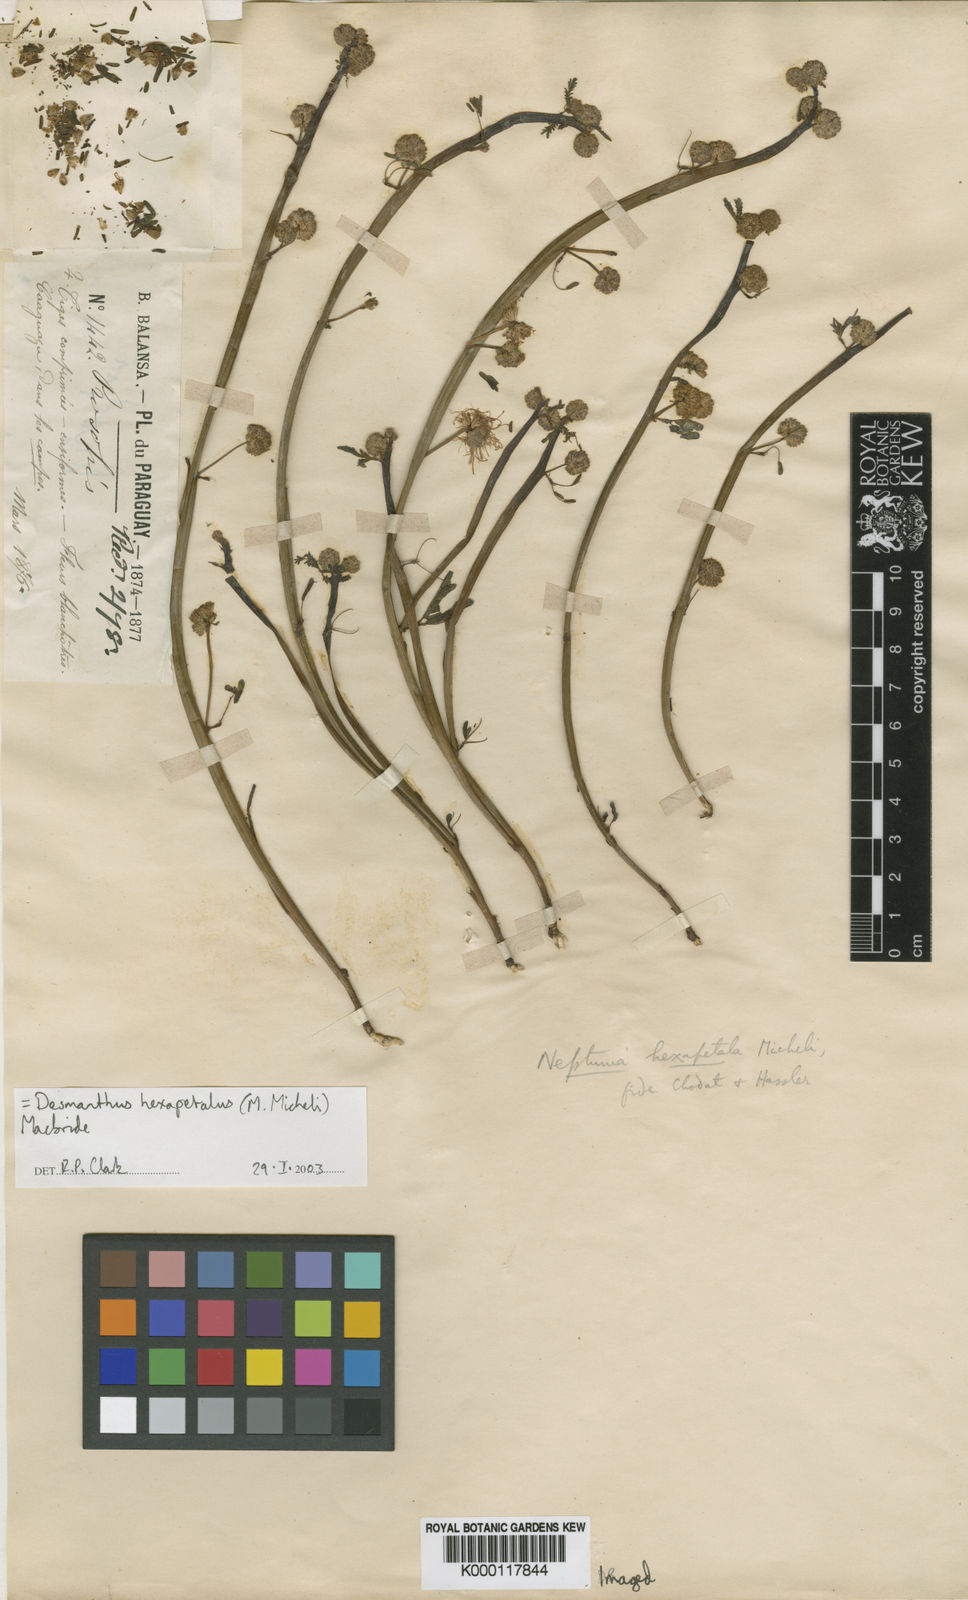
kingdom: Plantae
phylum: Tracheophyta
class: Magnoliopsida
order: Fabales
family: Fabaceae
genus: Desmanthus
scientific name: Desmanthus hexapetalus
